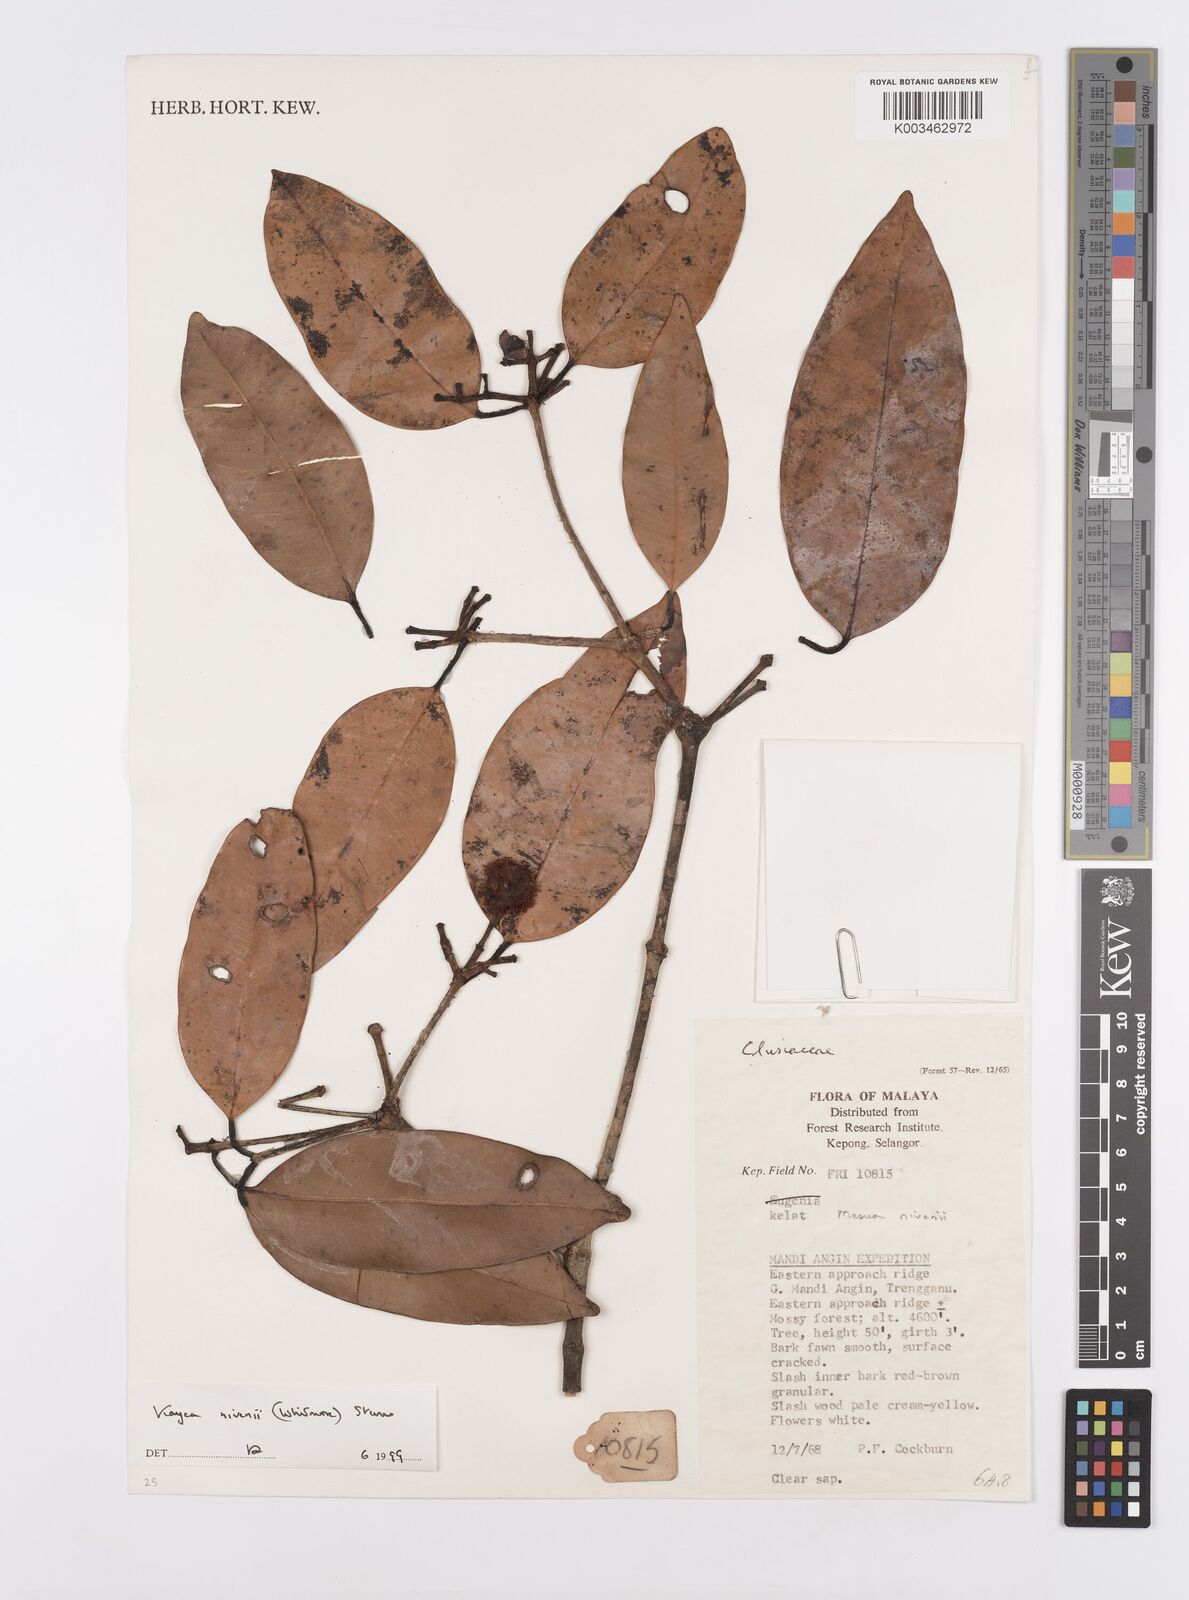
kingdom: Plantae
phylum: Tracheophyta
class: Magnoliopsida
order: Malpighiales
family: Calophyllaceae
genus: Kayea
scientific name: Kayea
